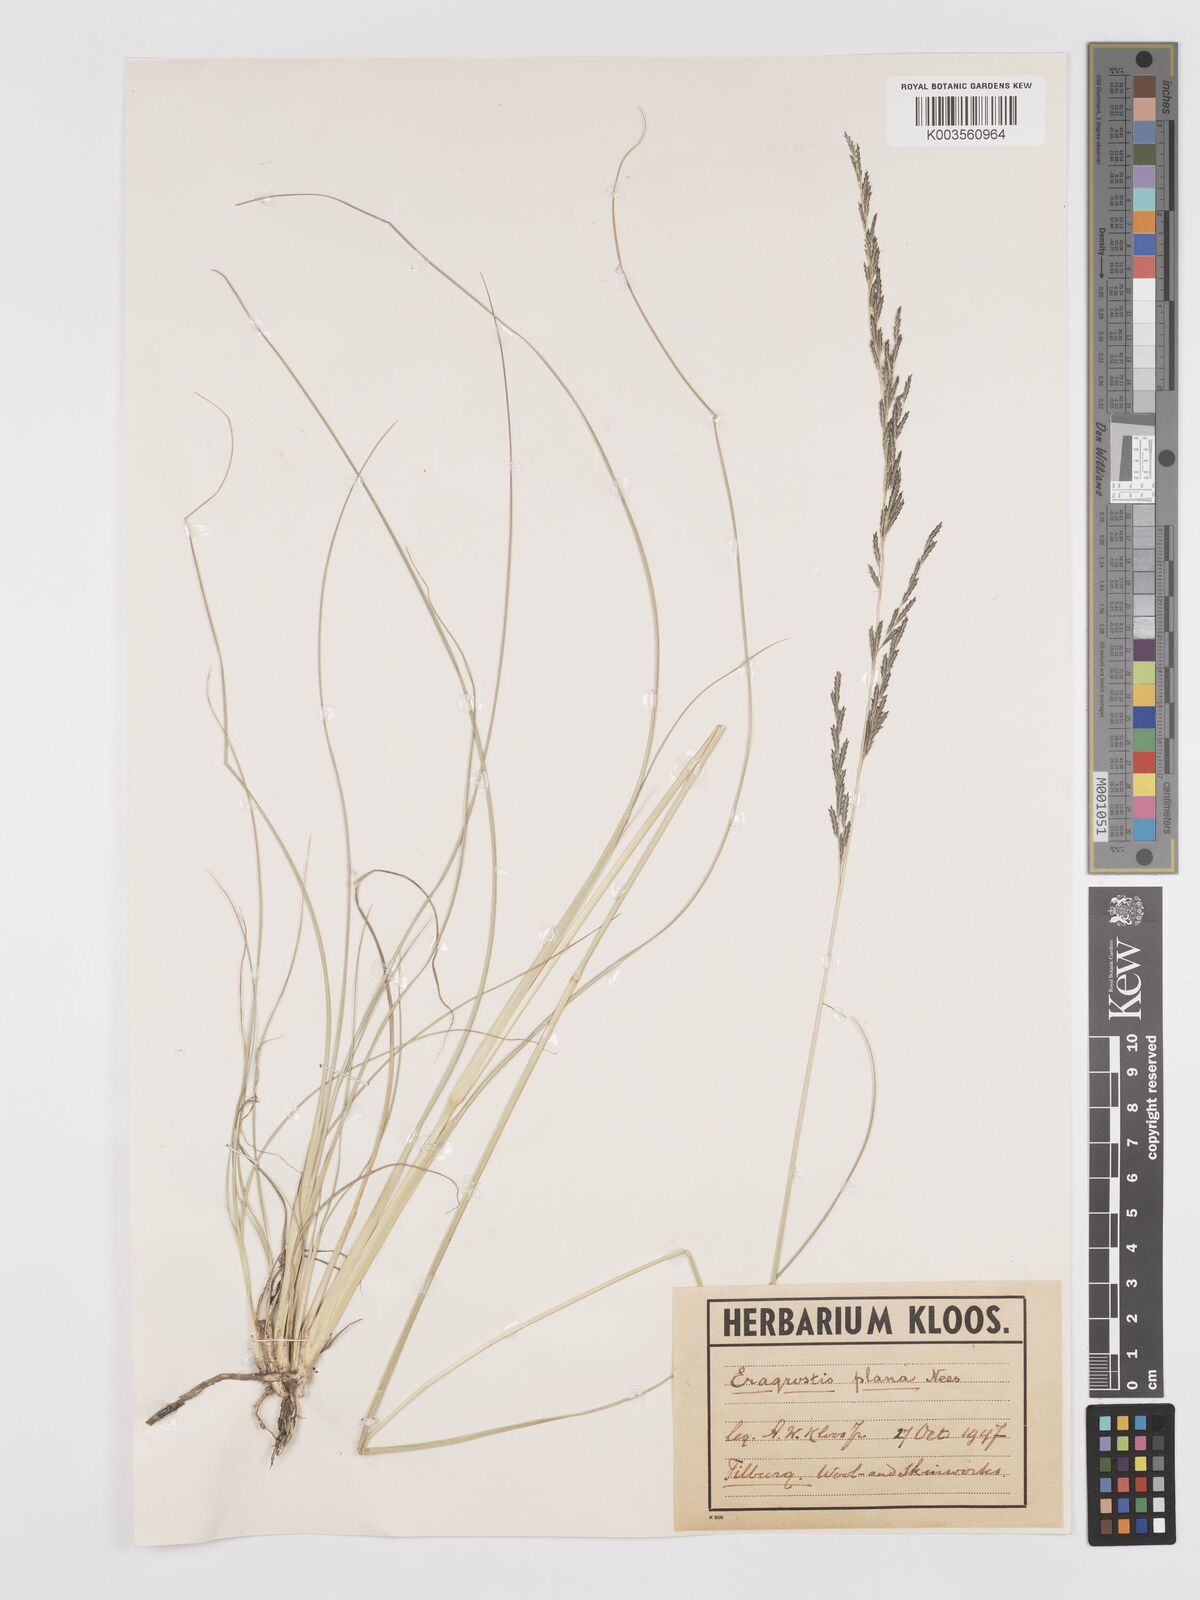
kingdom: Plantae
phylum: Tracheophyta
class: Liliopsida
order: Poales
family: Poaceae
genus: Eragrostis
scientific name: Eragrostis plana
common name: South african lovegrass
